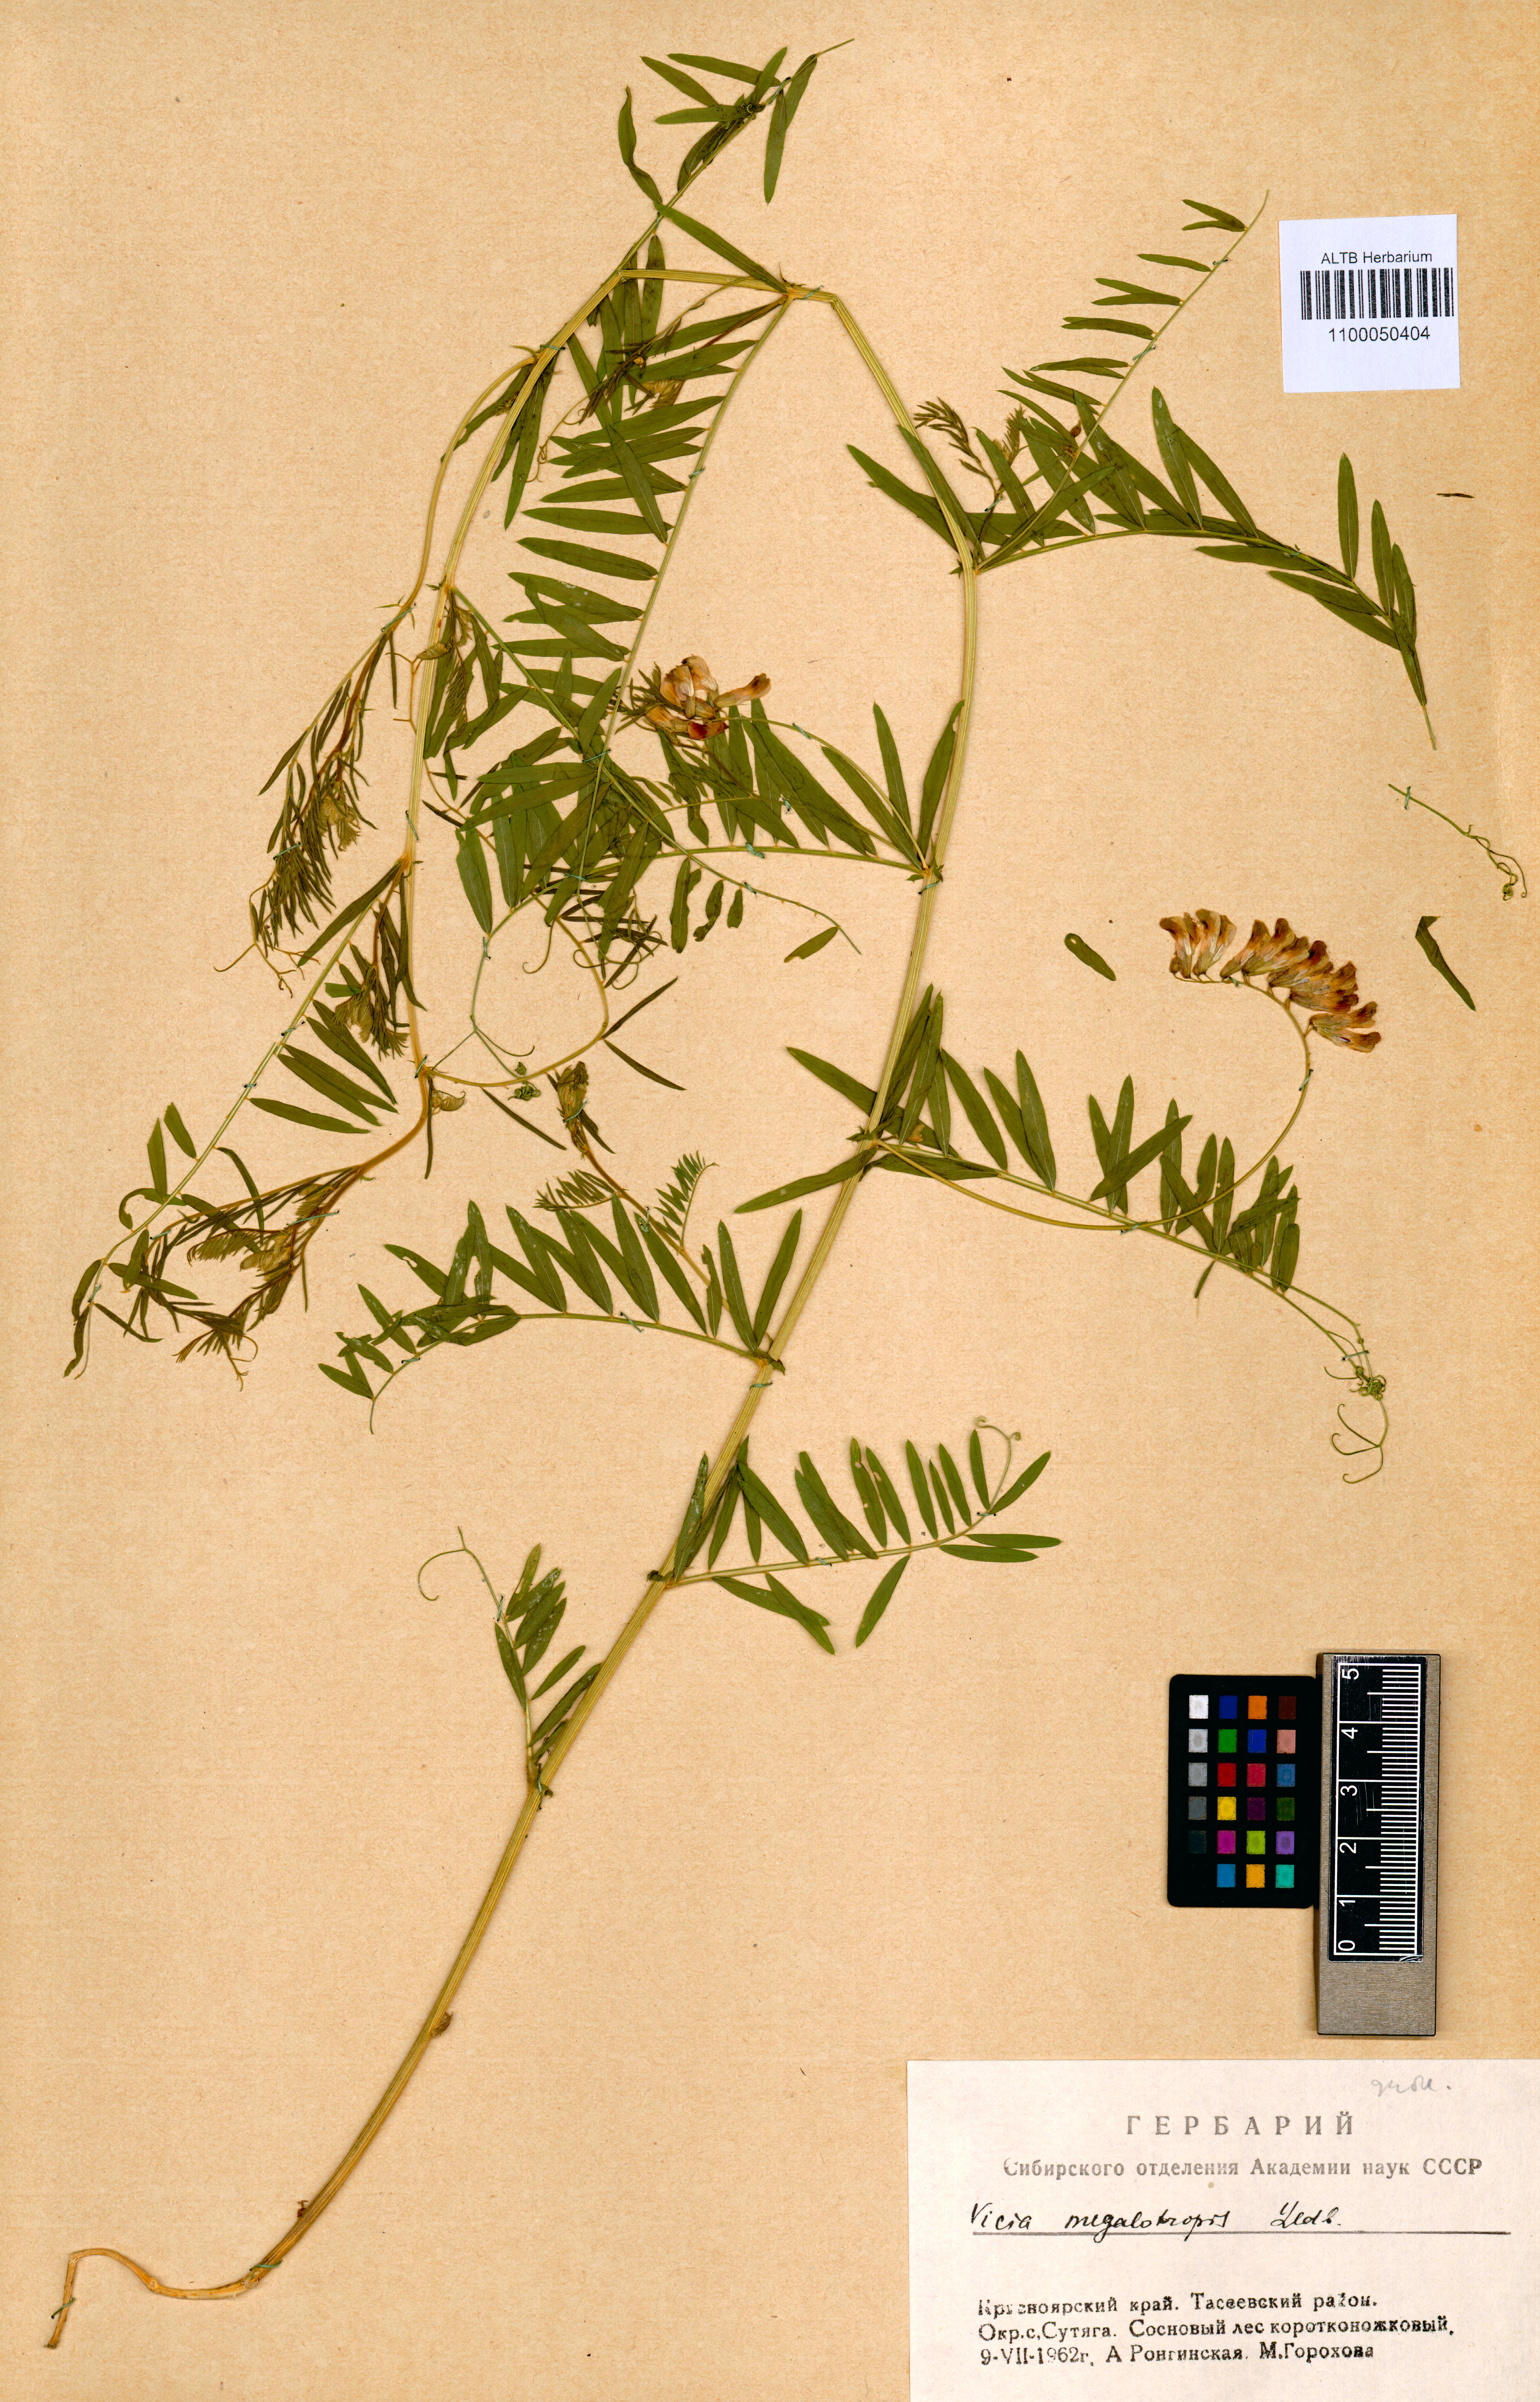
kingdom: Plantae
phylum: Tracheophyta
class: Magnoliopsida
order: Fabales
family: Fabaceae
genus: Vicia
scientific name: Vicia megalotropis
